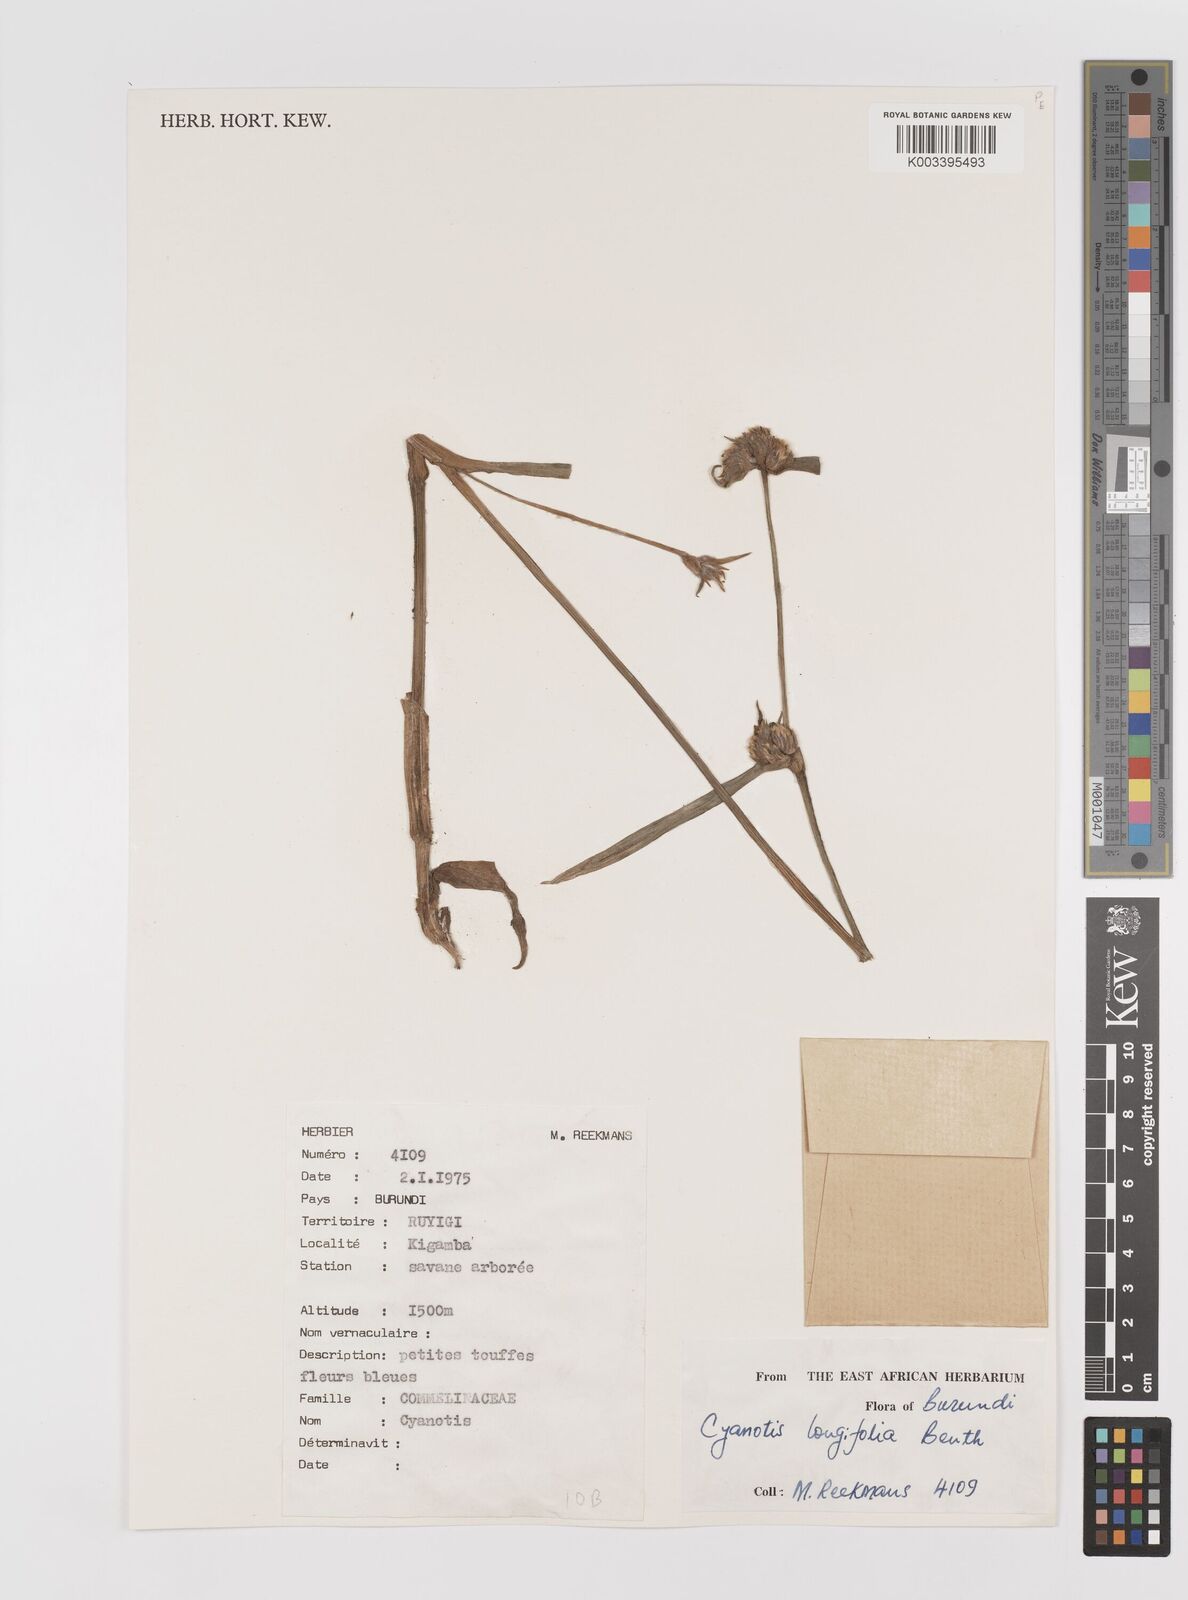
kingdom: Plantae
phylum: Tracheophyta
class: Liliopsida
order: Commelinales
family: Commelinaceae
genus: Cyanotis
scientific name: Cyanotis longifolia
